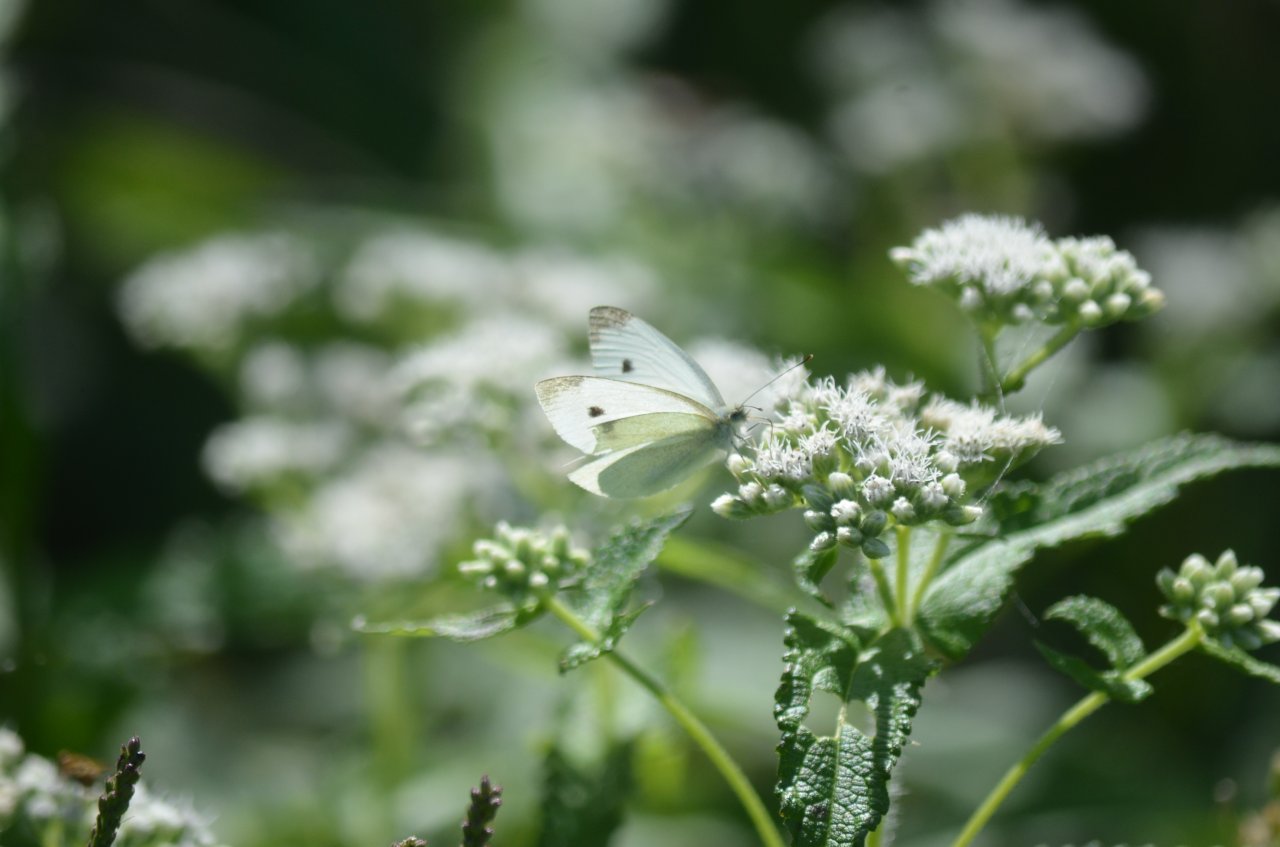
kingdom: Animalia
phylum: Arthropoda
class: Insecta
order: Lepidoptera
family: Pieridae
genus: Pieris
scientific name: Pieris rapae
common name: Cabbage White
